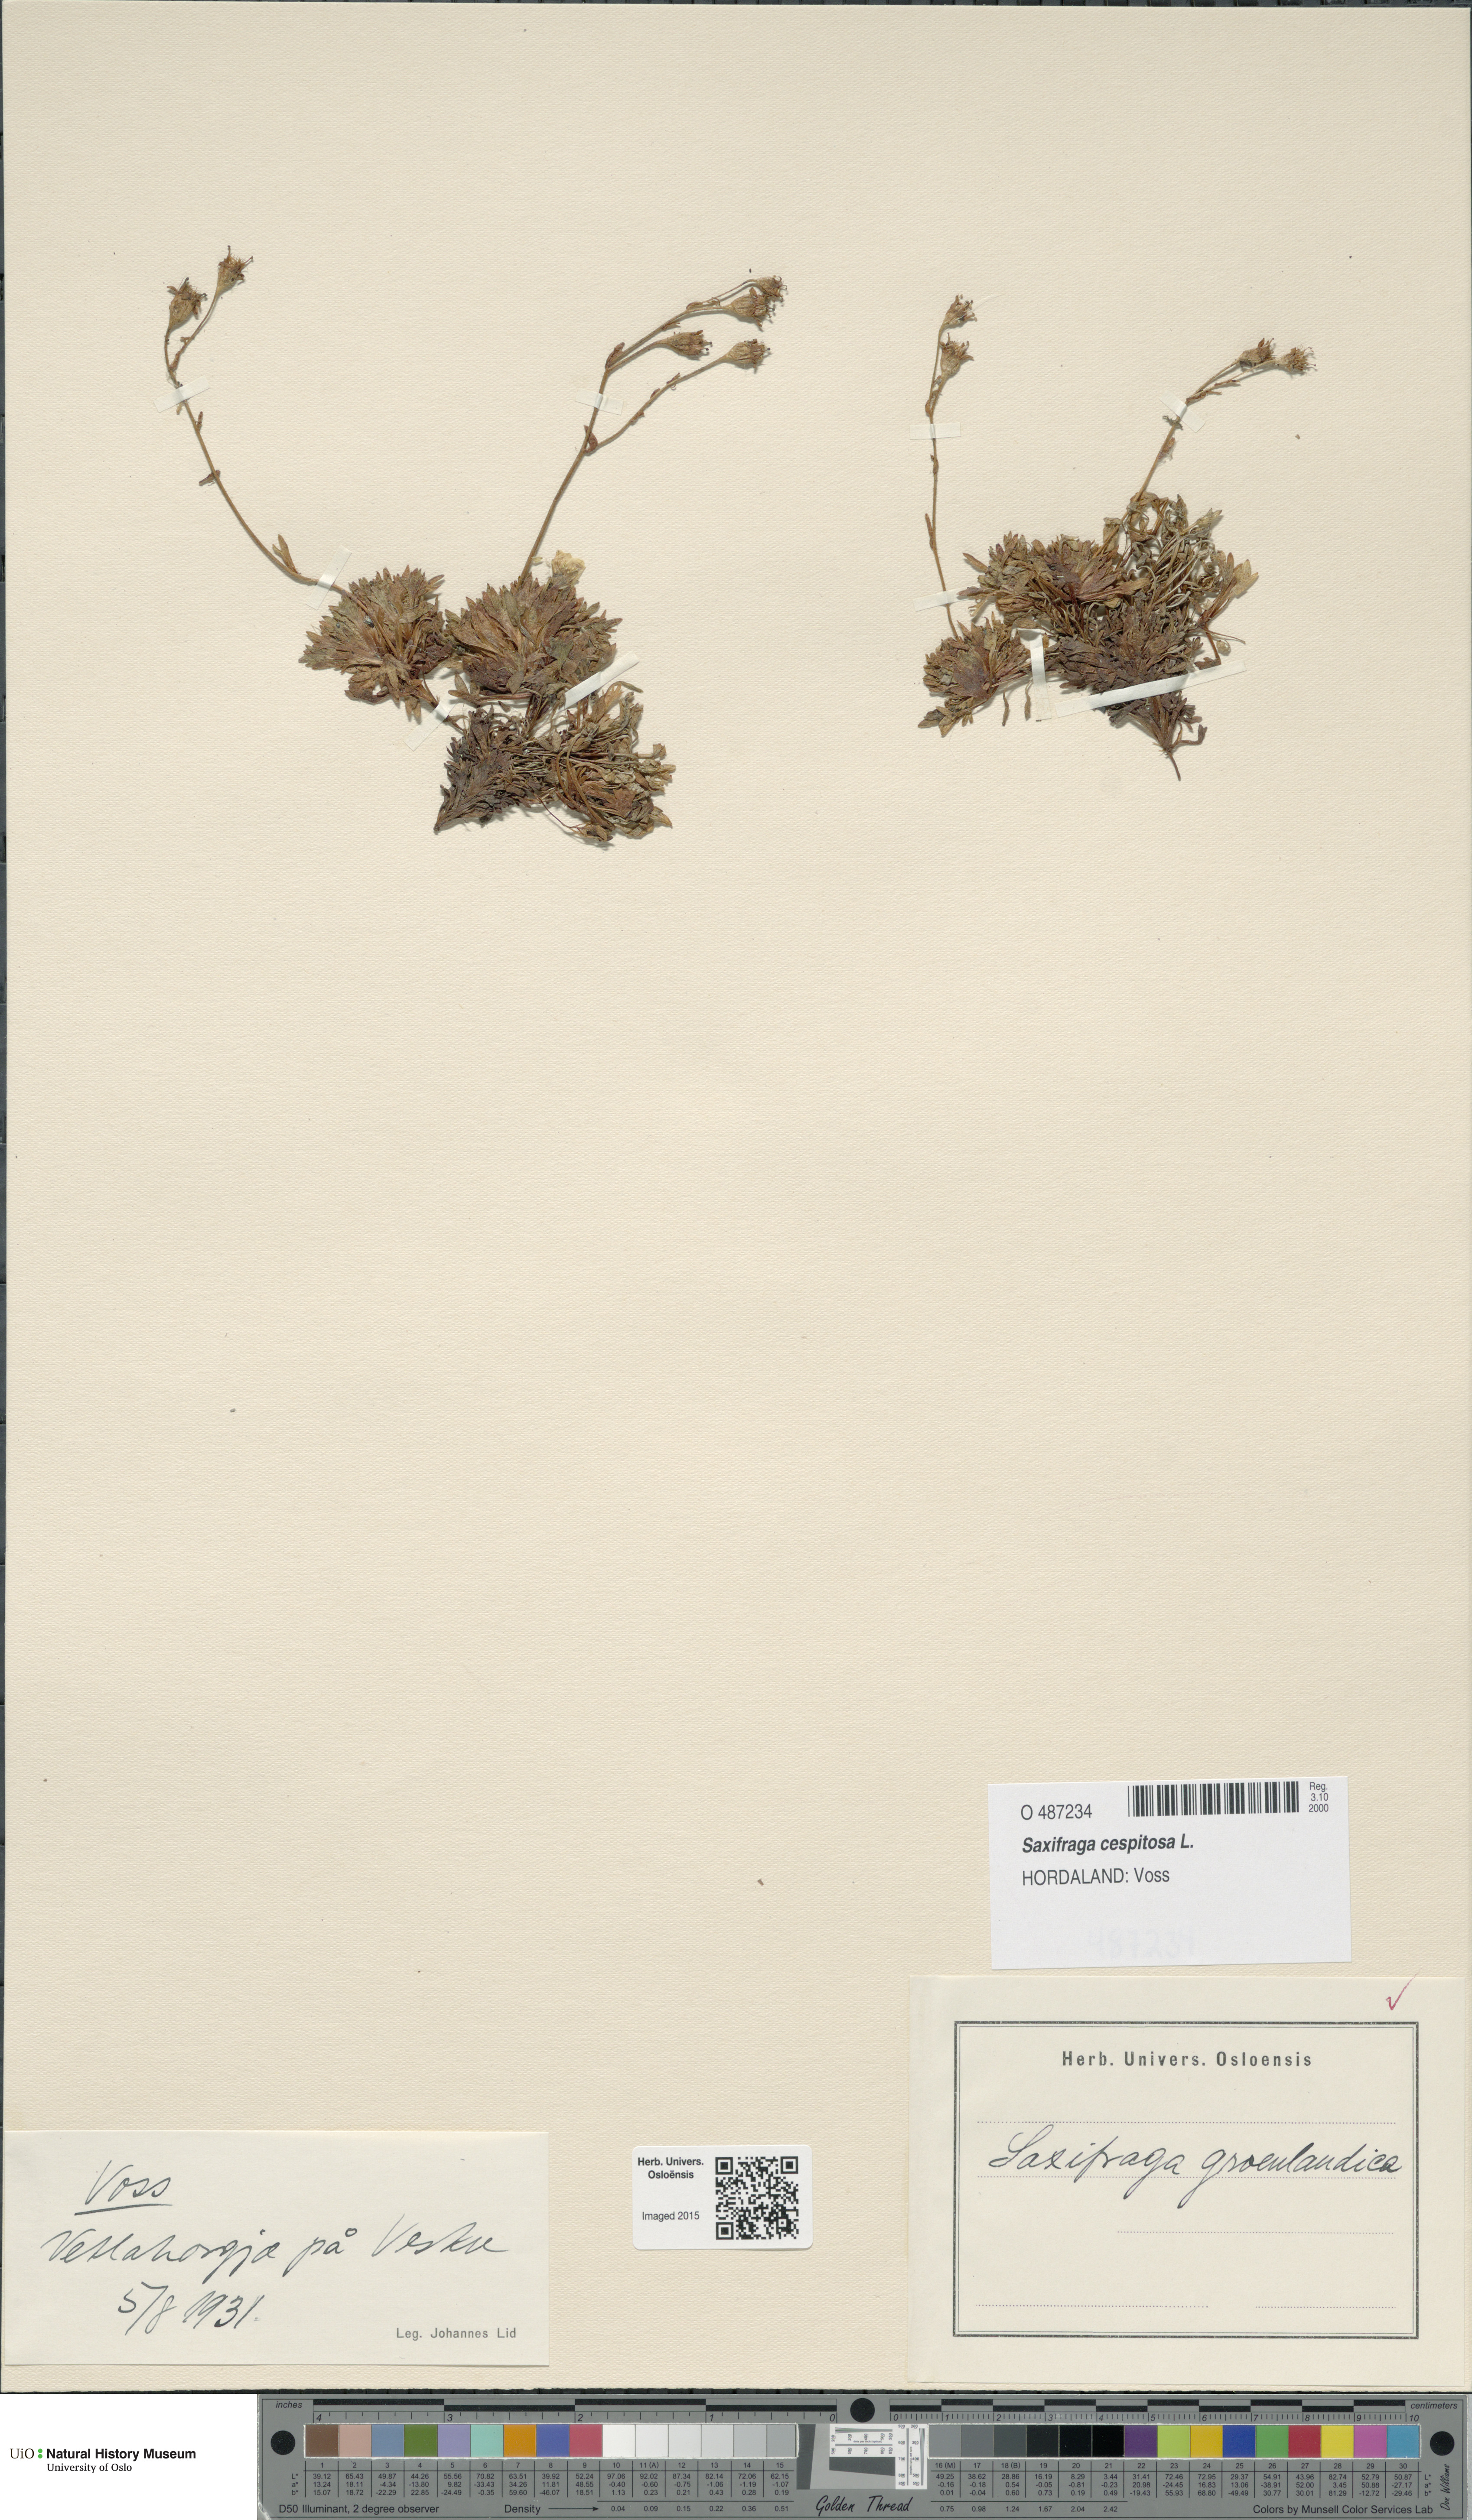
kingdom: Plantae
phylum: Tracheophyta
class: Magnoliopsida
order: Saxifragales
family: Saxifragaceae
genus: Saxifraga
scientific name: Saxifraga cespitosa
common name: Tufted saxifrage
